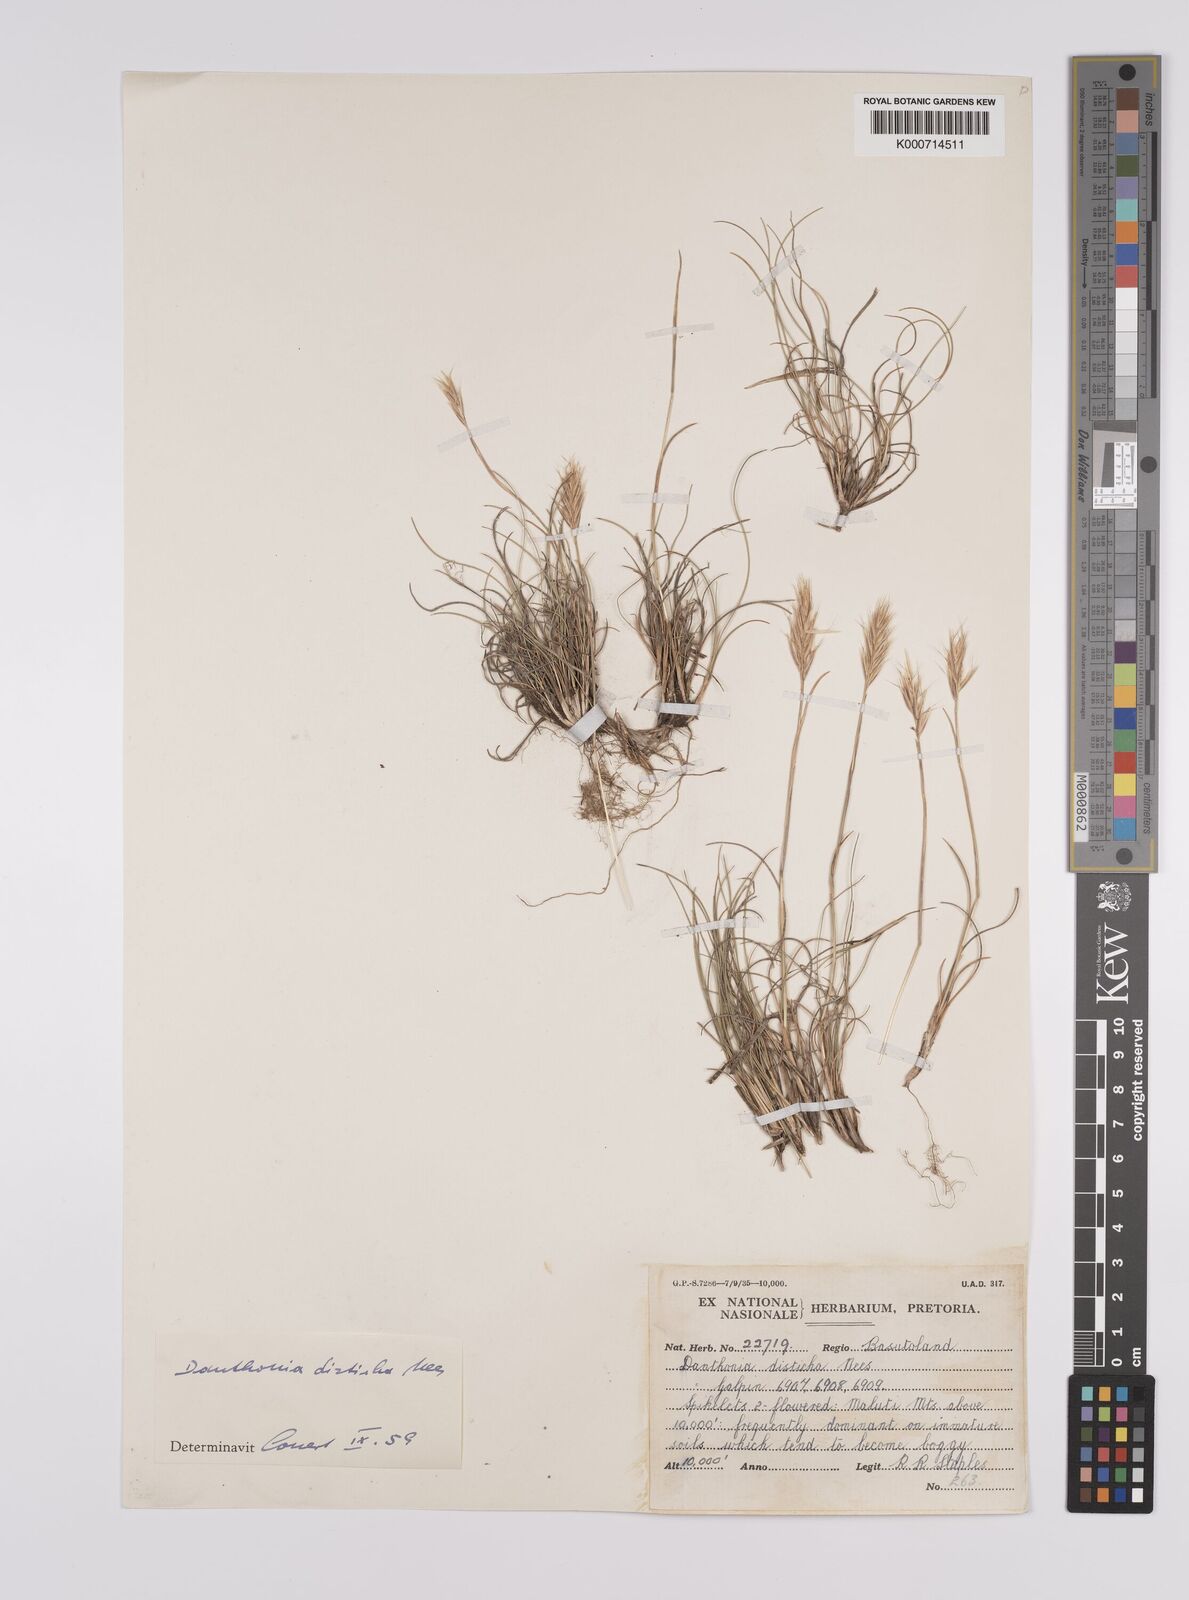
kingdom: Plantae
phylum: Tracheophyta
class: Liliopsida
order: Poales
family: Poaceae
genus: Tenaxia
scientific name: Tenaxia disticha
